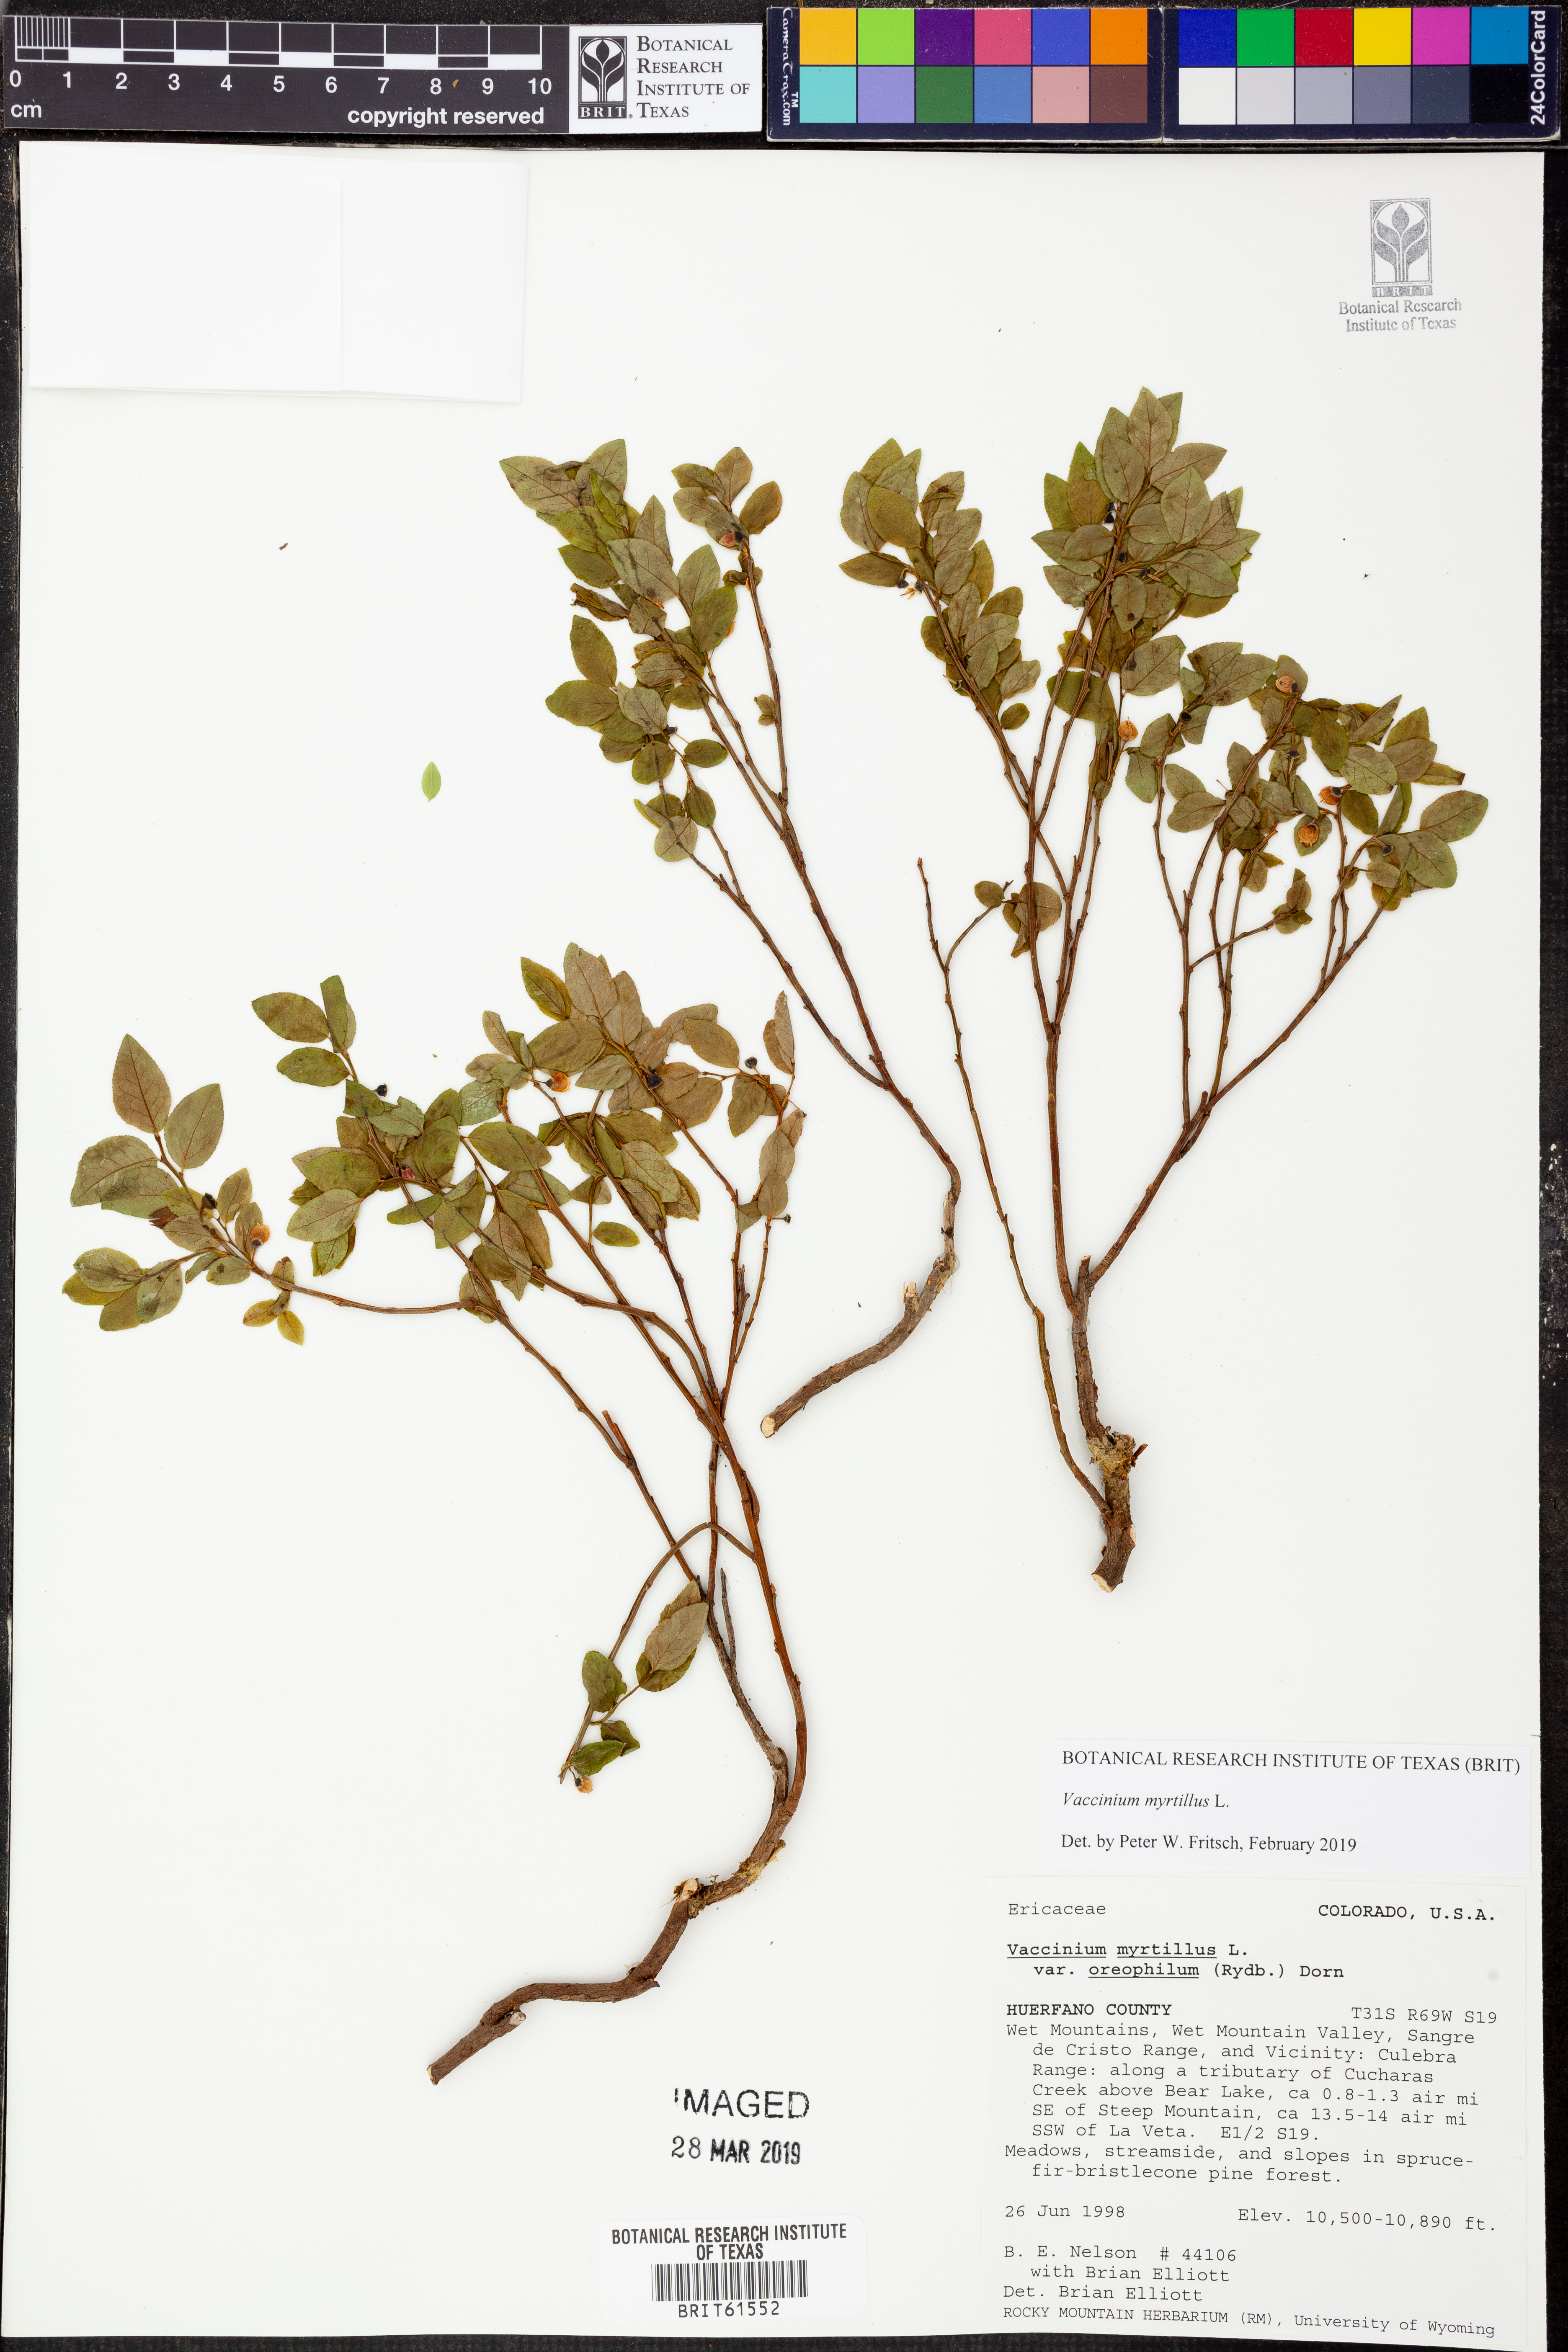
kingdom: Plantae
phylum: Tracheophyta
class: Magnoliopsida
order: Ericales
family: Ericaceae
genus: Vaccinium
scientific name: Vaccinium myrtillus
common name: Bilberry
